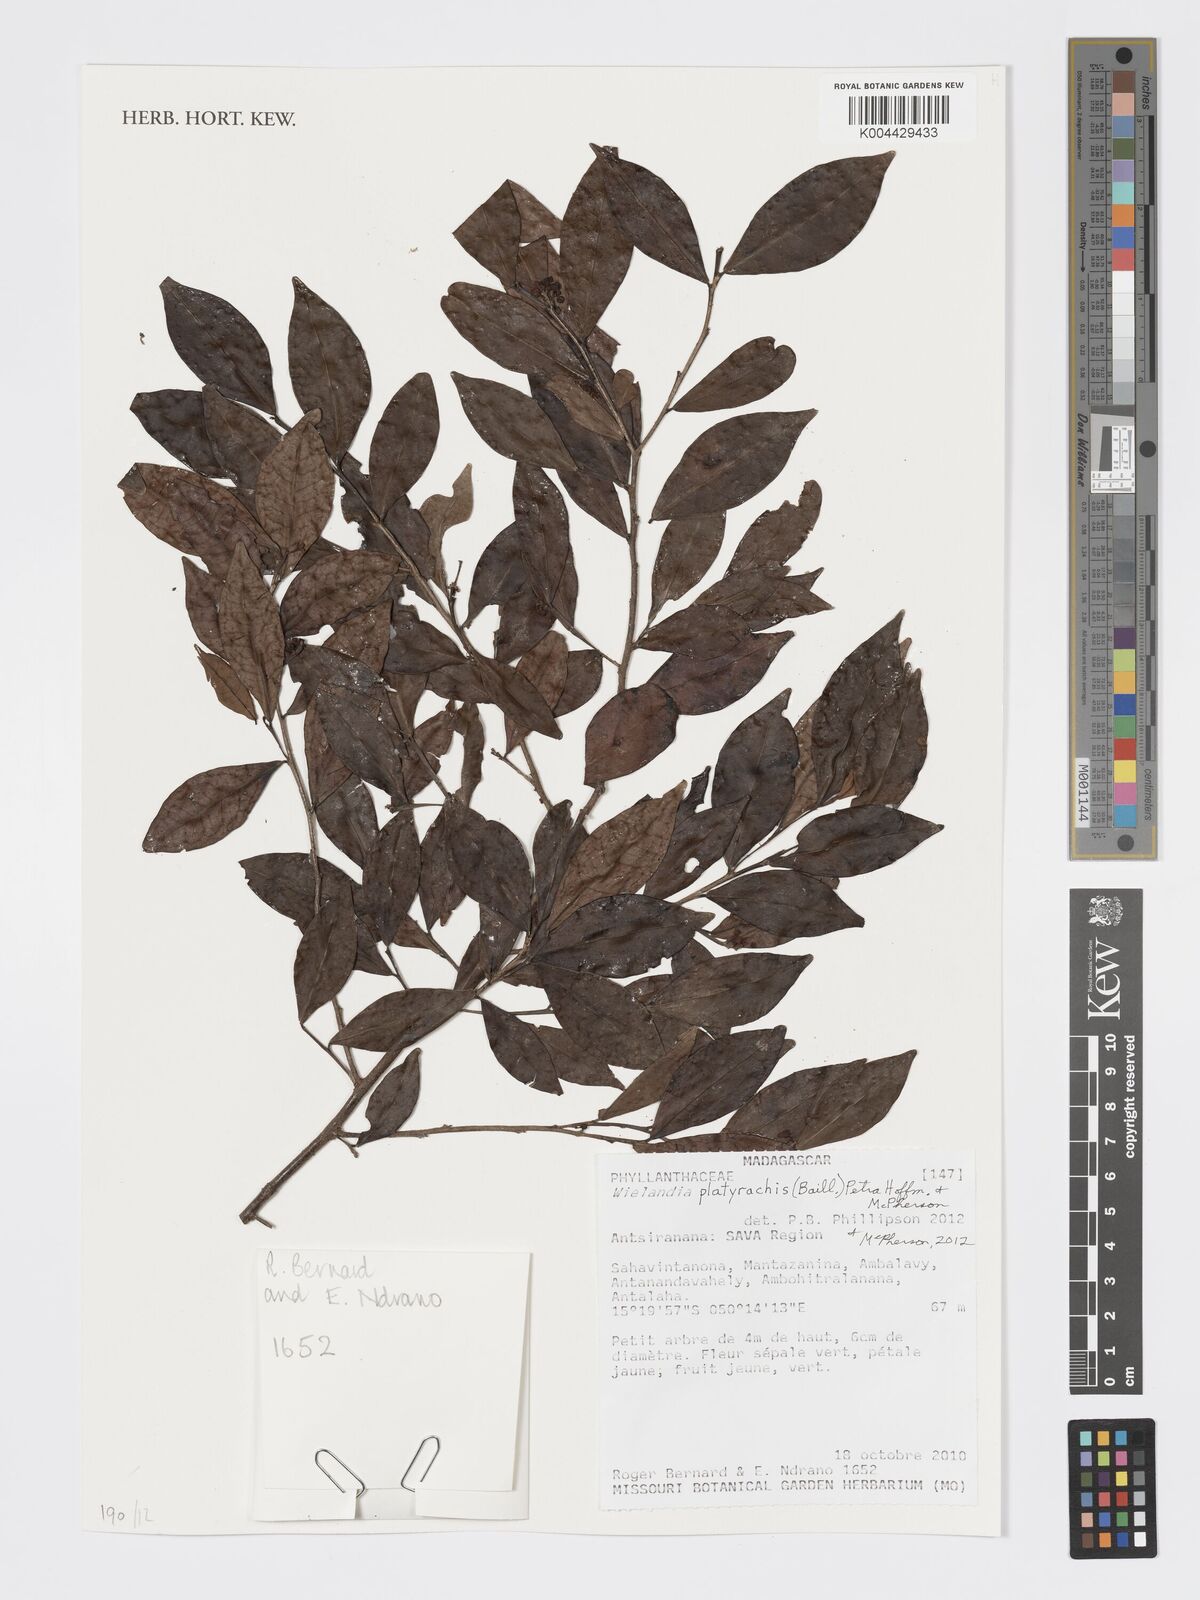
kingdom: Plantae
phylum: Tracheophyta
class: Magnoliopsida
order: Malpighiales
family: Phyllanthaceae
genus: Wielandia
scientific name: Wielandia platyrachis
